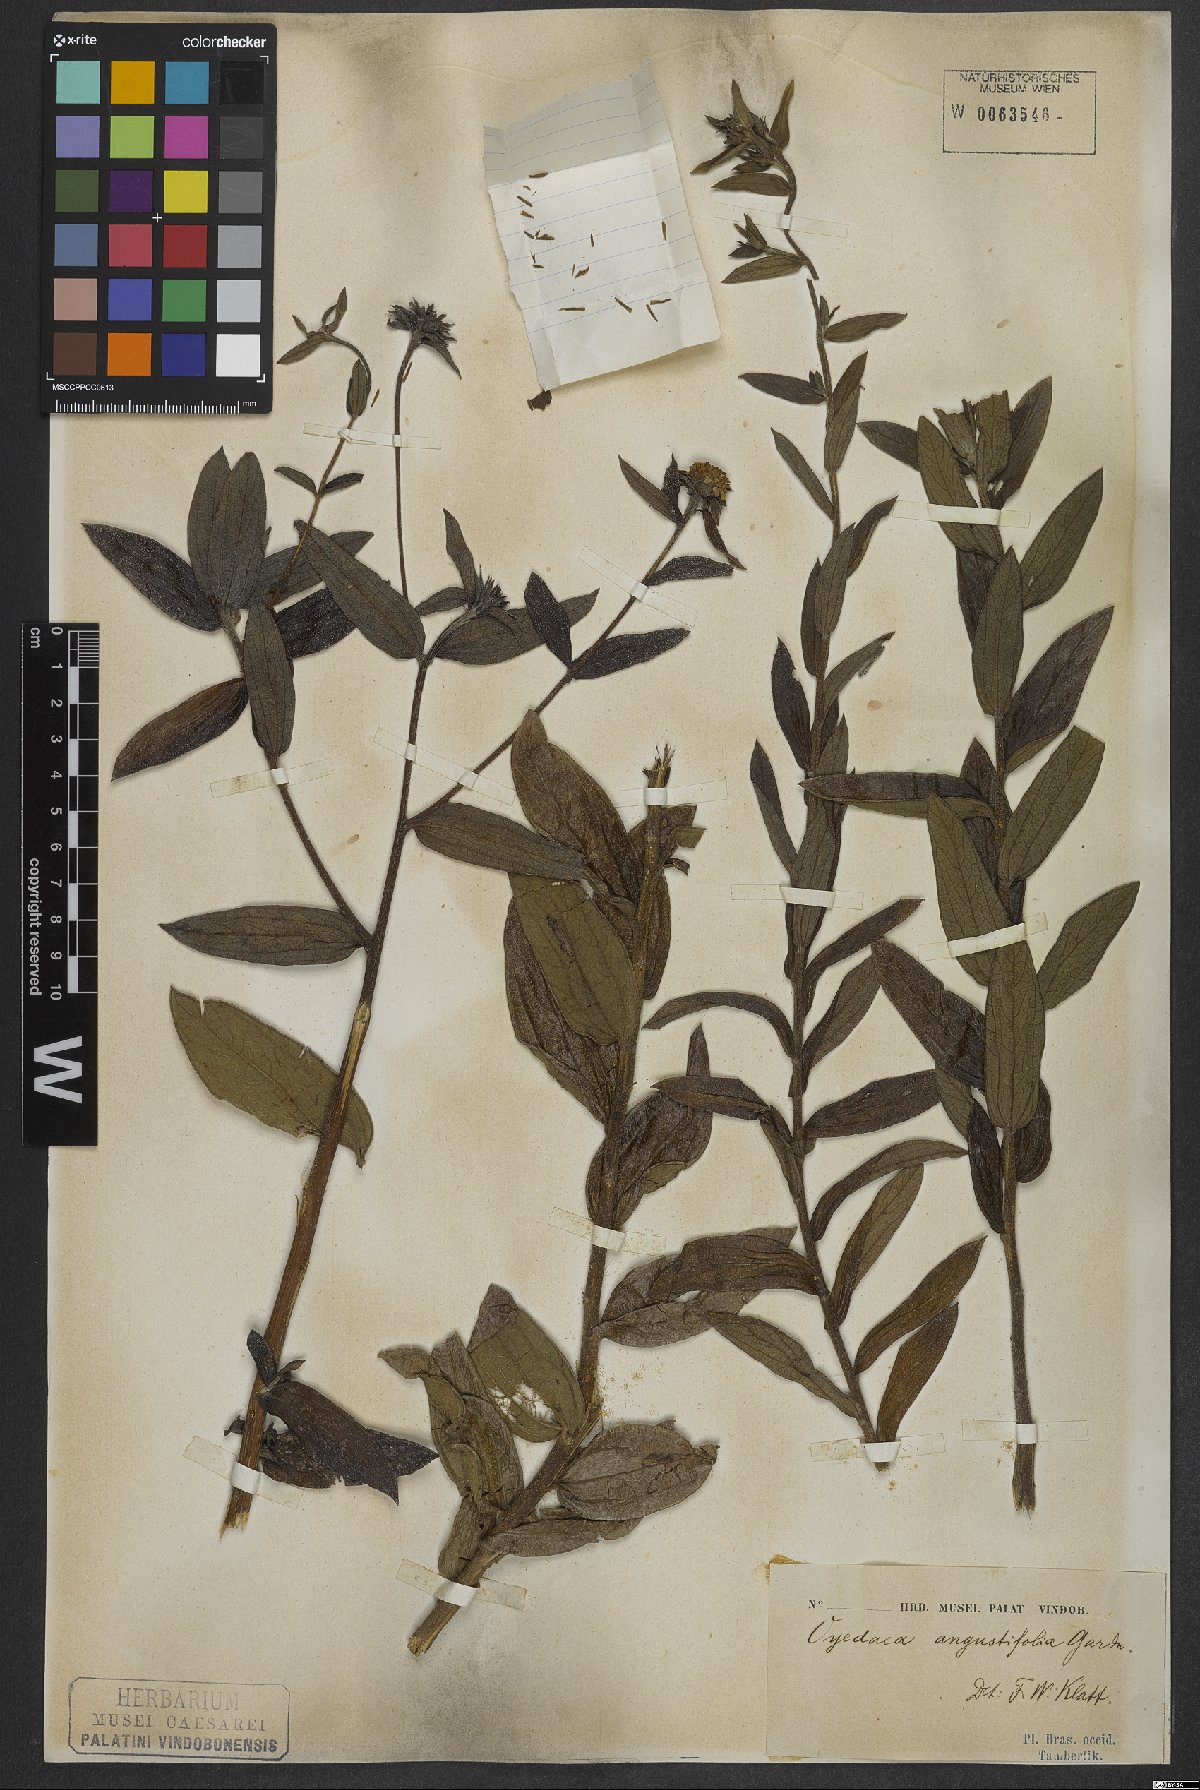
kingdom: Plantae
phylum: Tracheophyta
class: Magnoliopsida
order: Asterales
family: Asteraceae
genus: Wedelia
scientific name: Wedelia angustifolia
